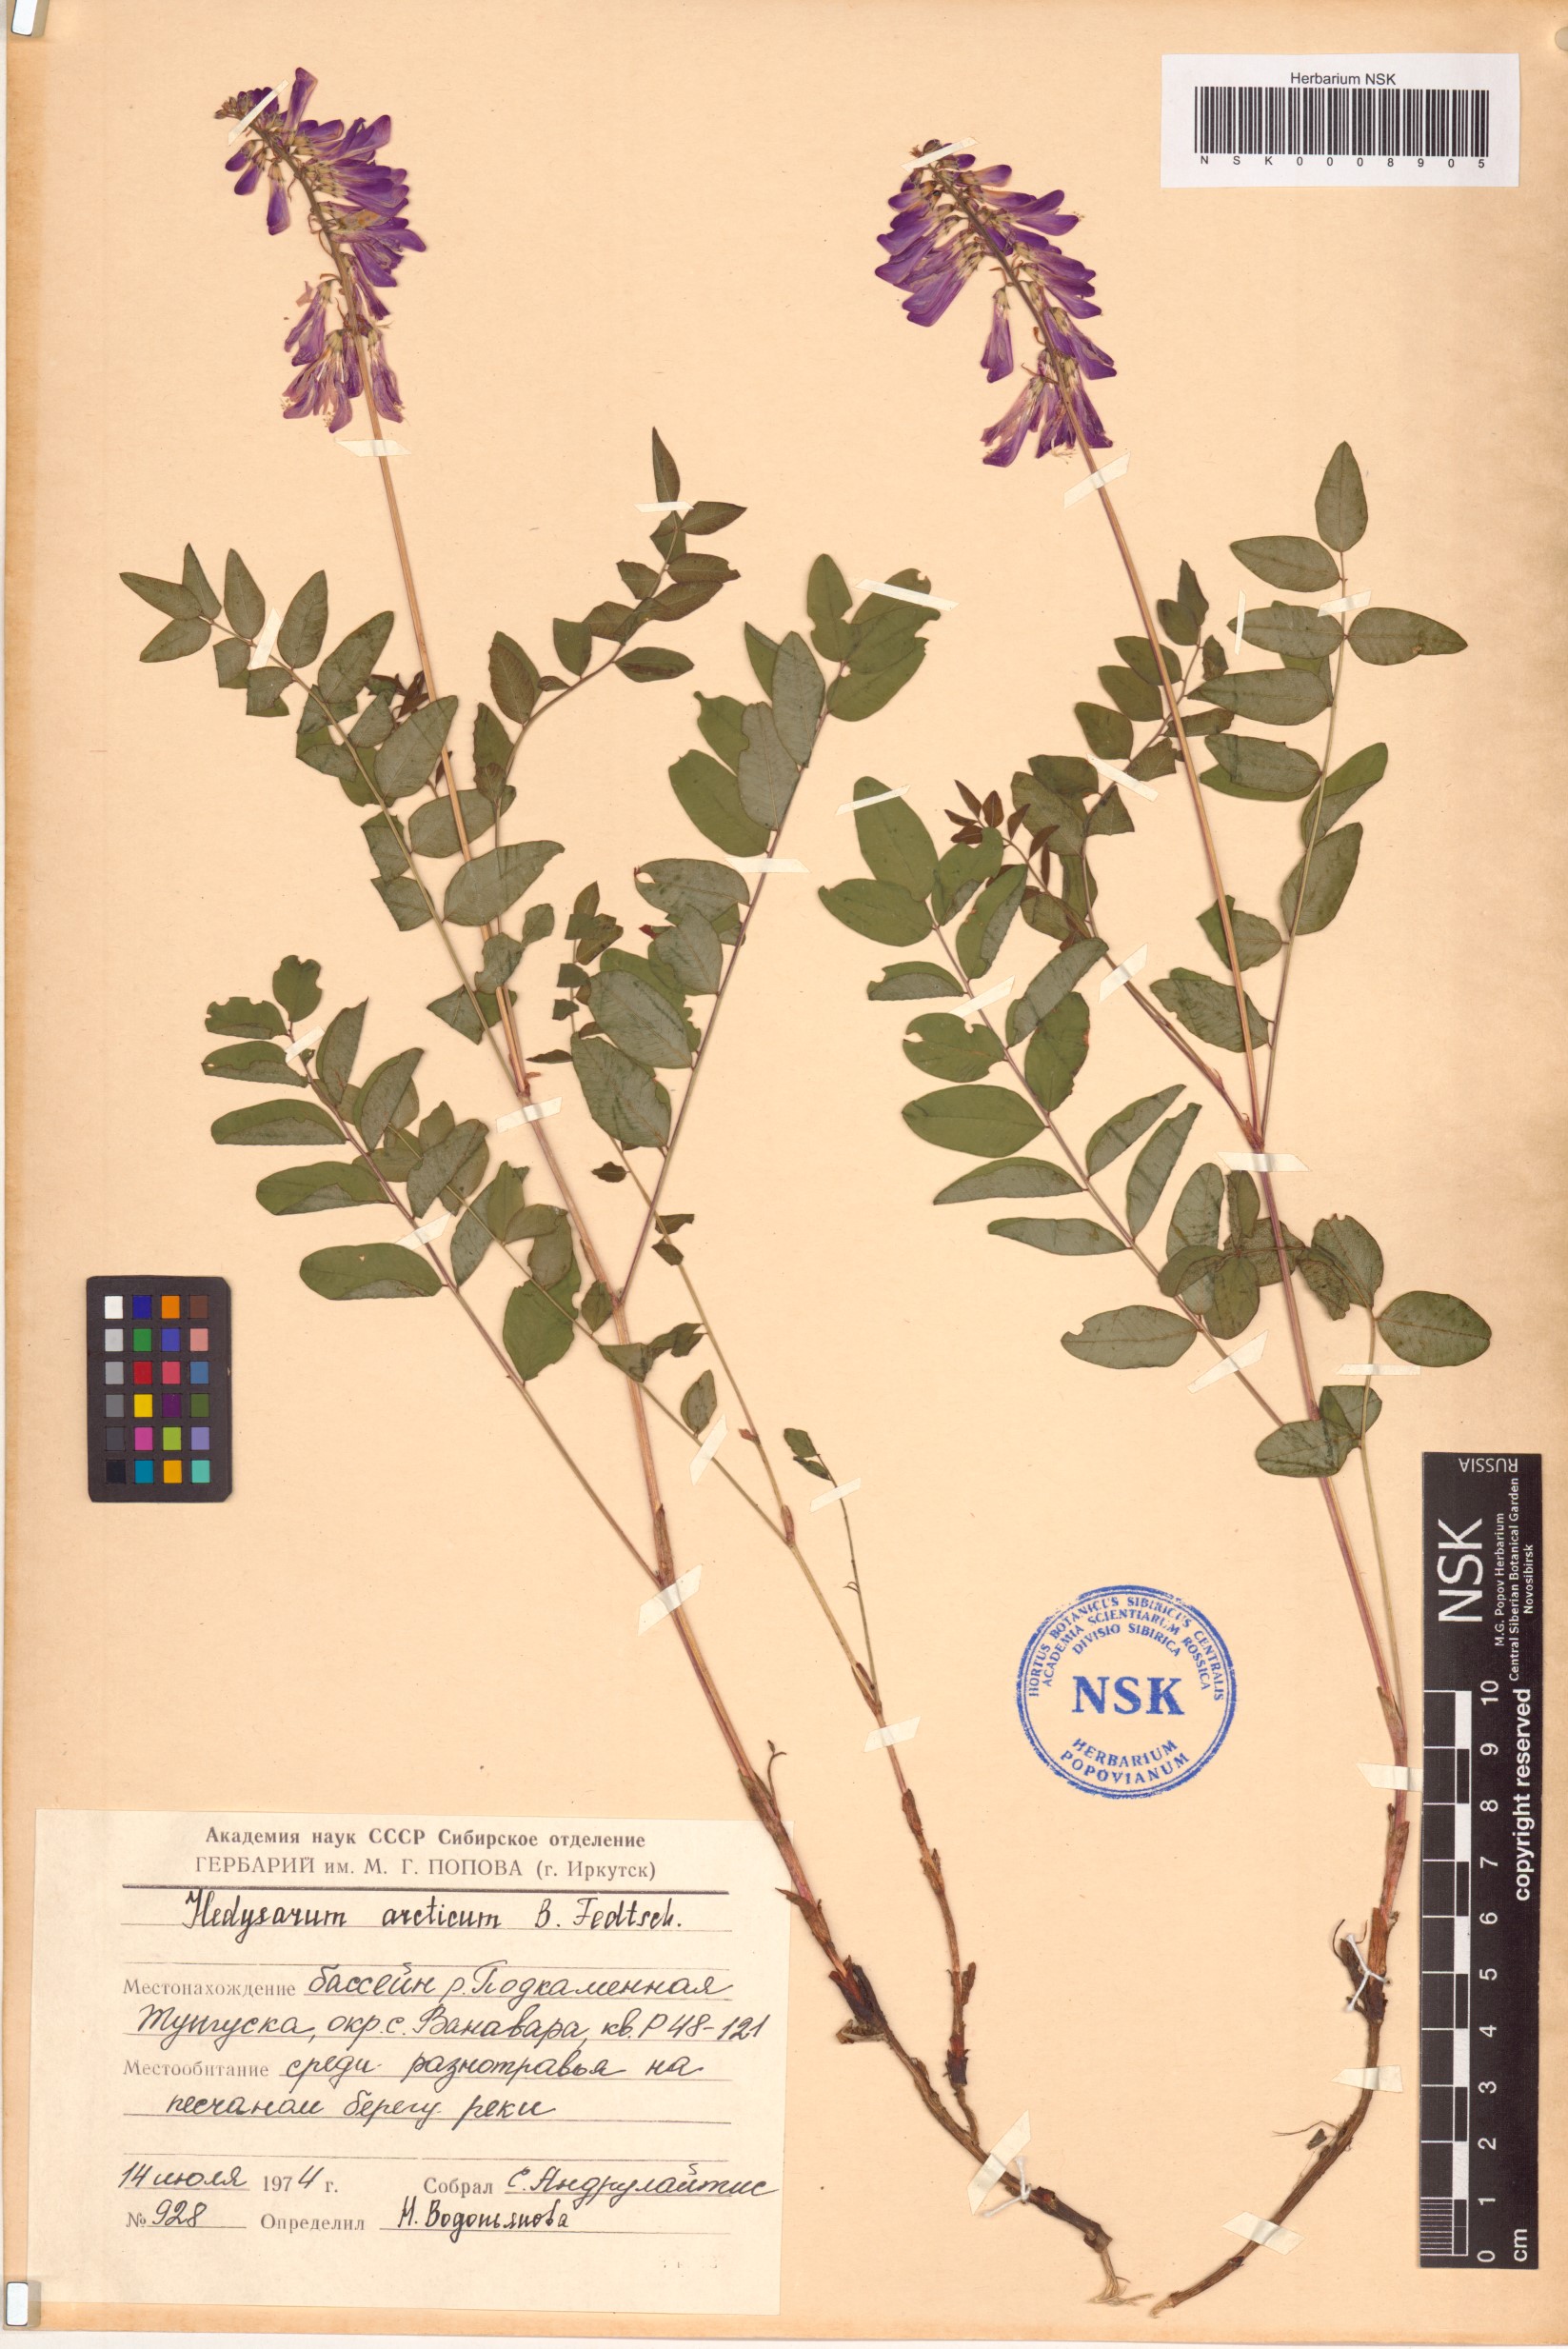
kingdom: Plantae
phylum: Tracheophyta
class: Magnoliopsida
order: Fabales
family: Fabaceae
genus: Hedysarum
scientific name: Hedysarum hedysaroides
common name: Alpine french-honeysuckle
